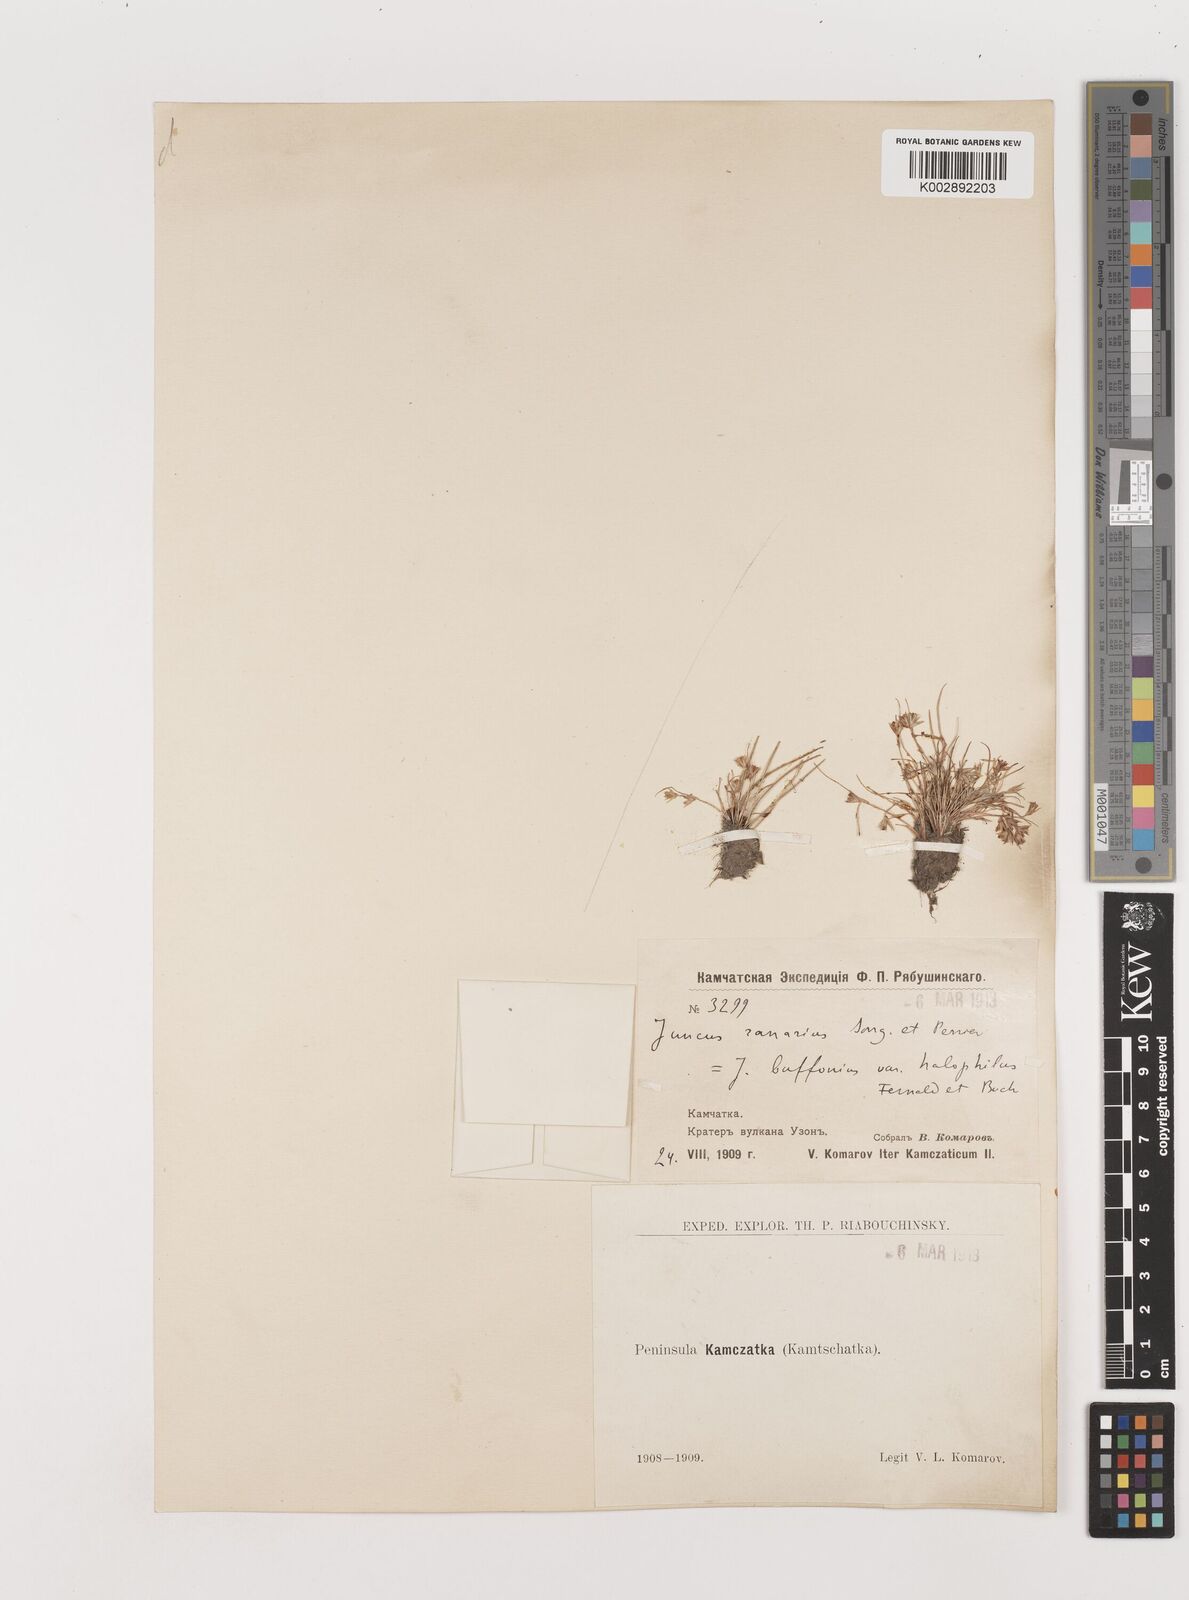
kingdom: Plantae
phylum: Tracheophyta
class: Liliopsida
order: Poales
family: Juncaceae
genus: Juncus
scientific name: Juncus bufonius
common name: Toad rush
